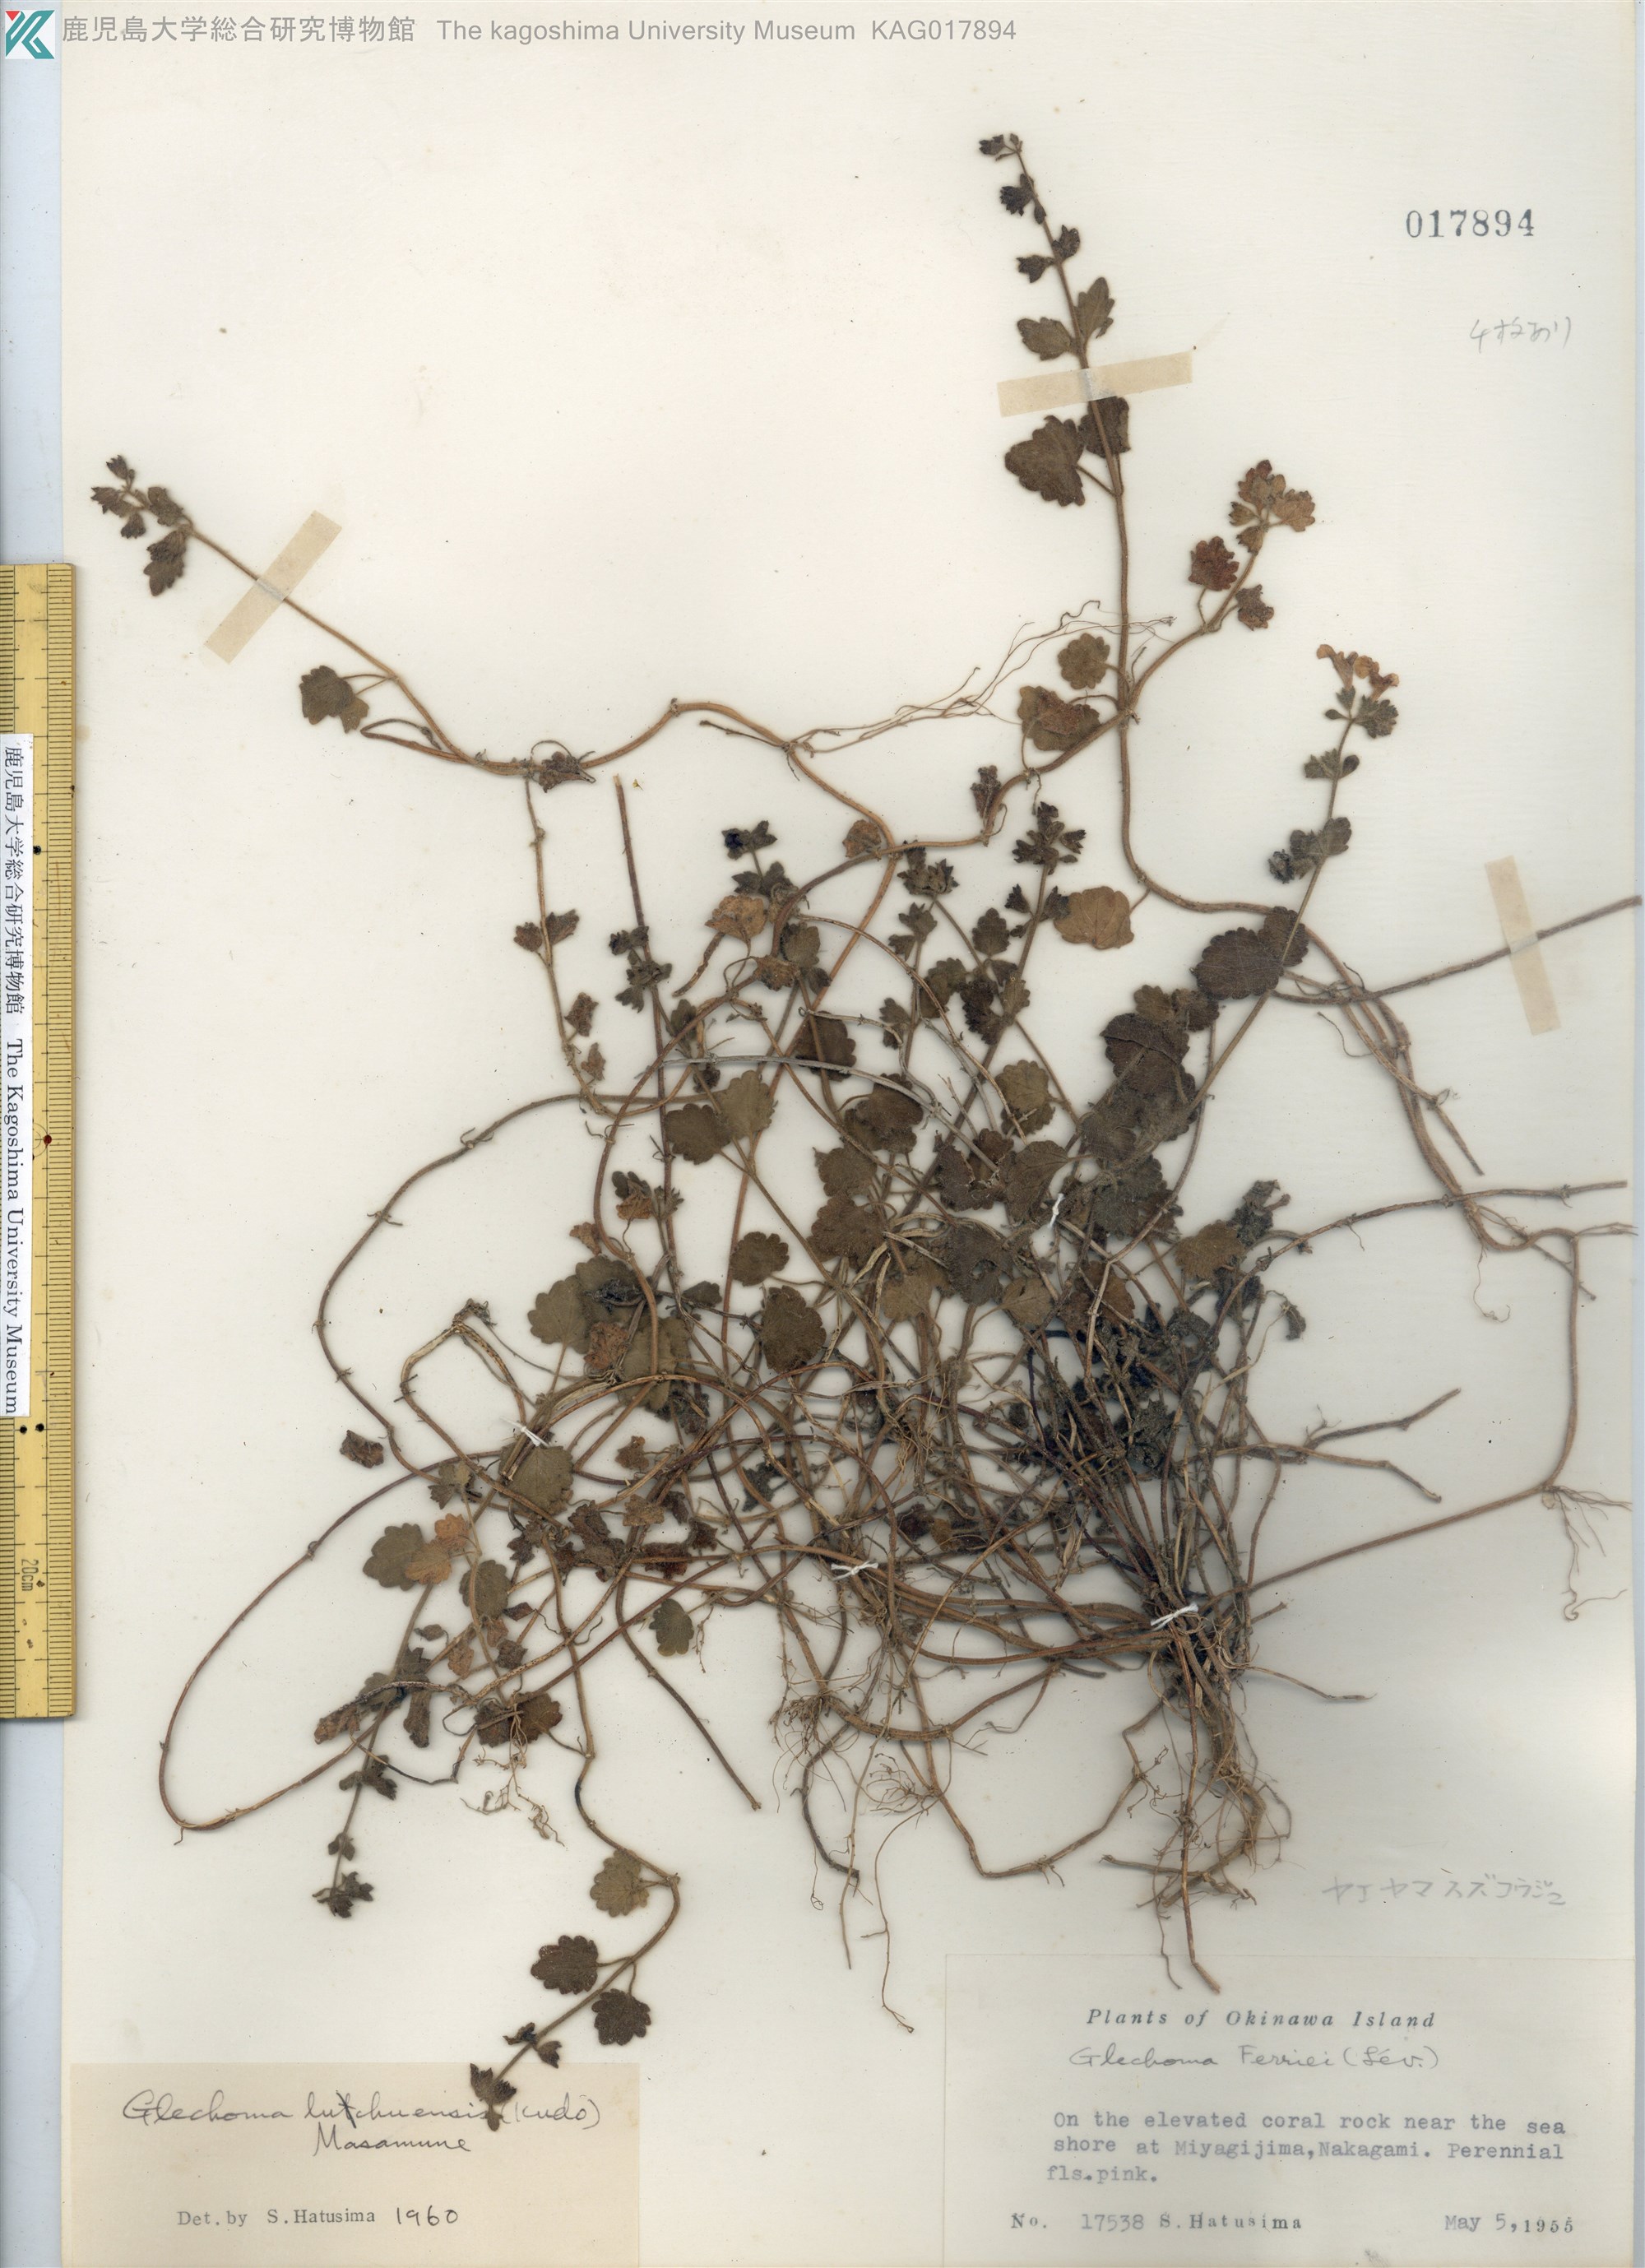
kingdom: Plantae
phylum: Tracheophyta
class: Magnoliopsida
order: Lamiales
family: Lamiaceae
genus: Suzukia
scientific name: Suzukia luchuensis
